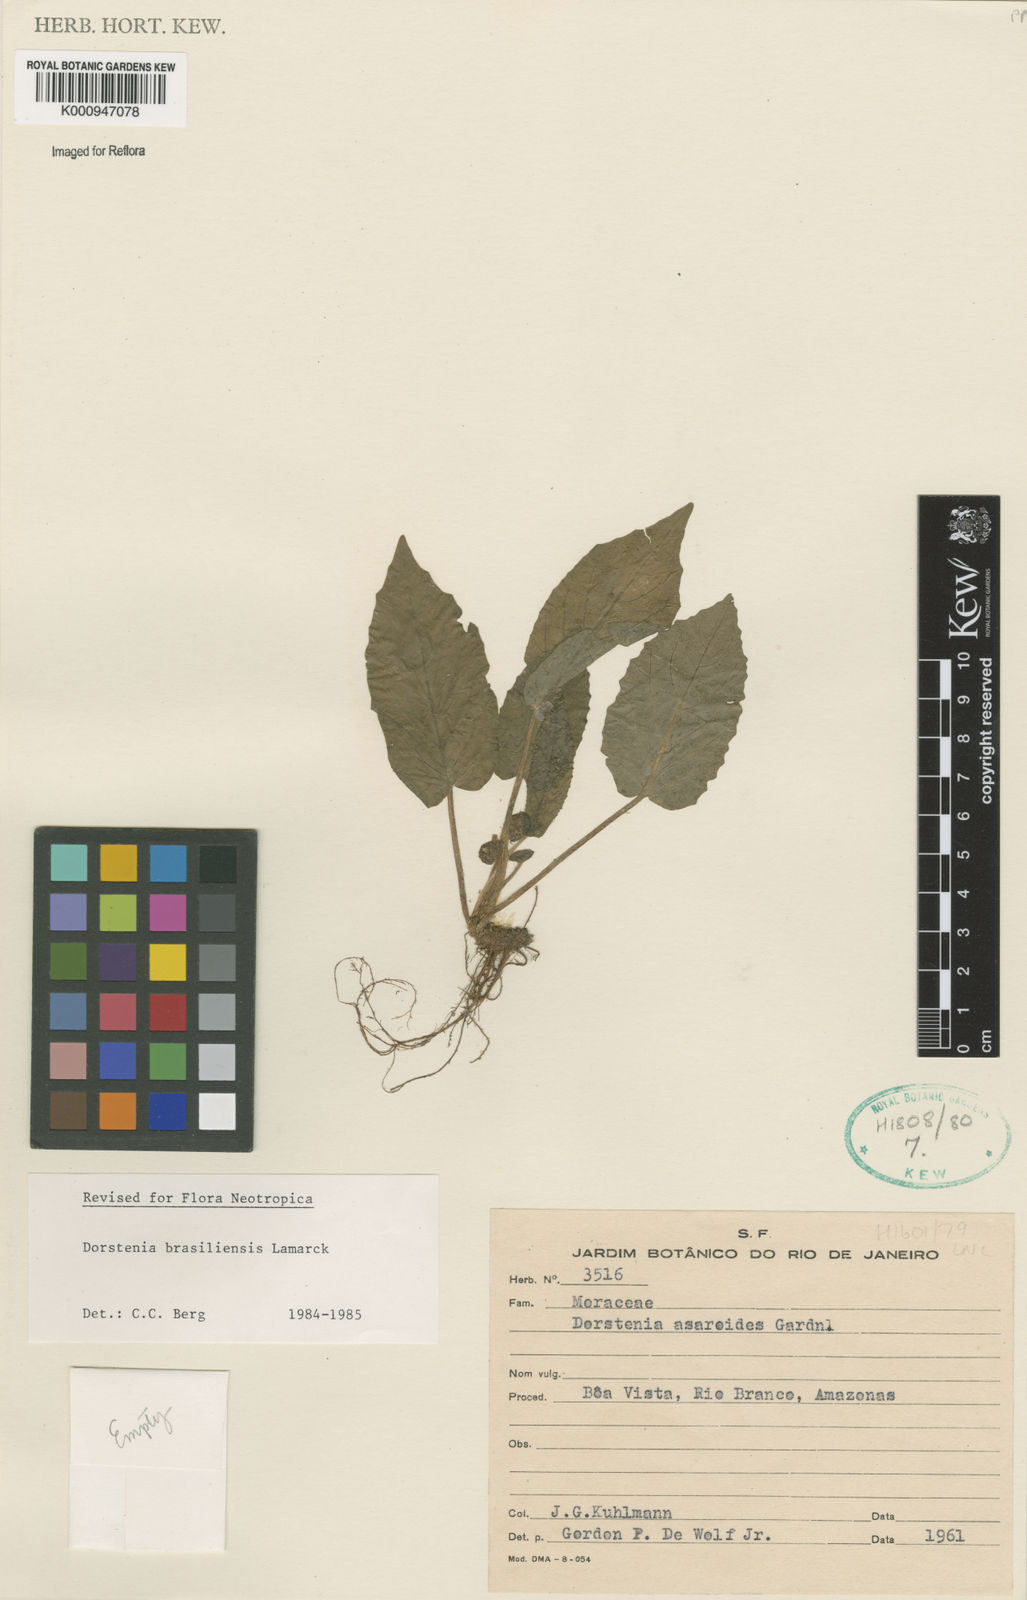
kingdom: Plantae
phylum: Tracheophyta
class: Magnoliopsida
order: Rosales
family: Moraceae
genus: Dorstenia
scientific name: Dorstenia brasiliensis
